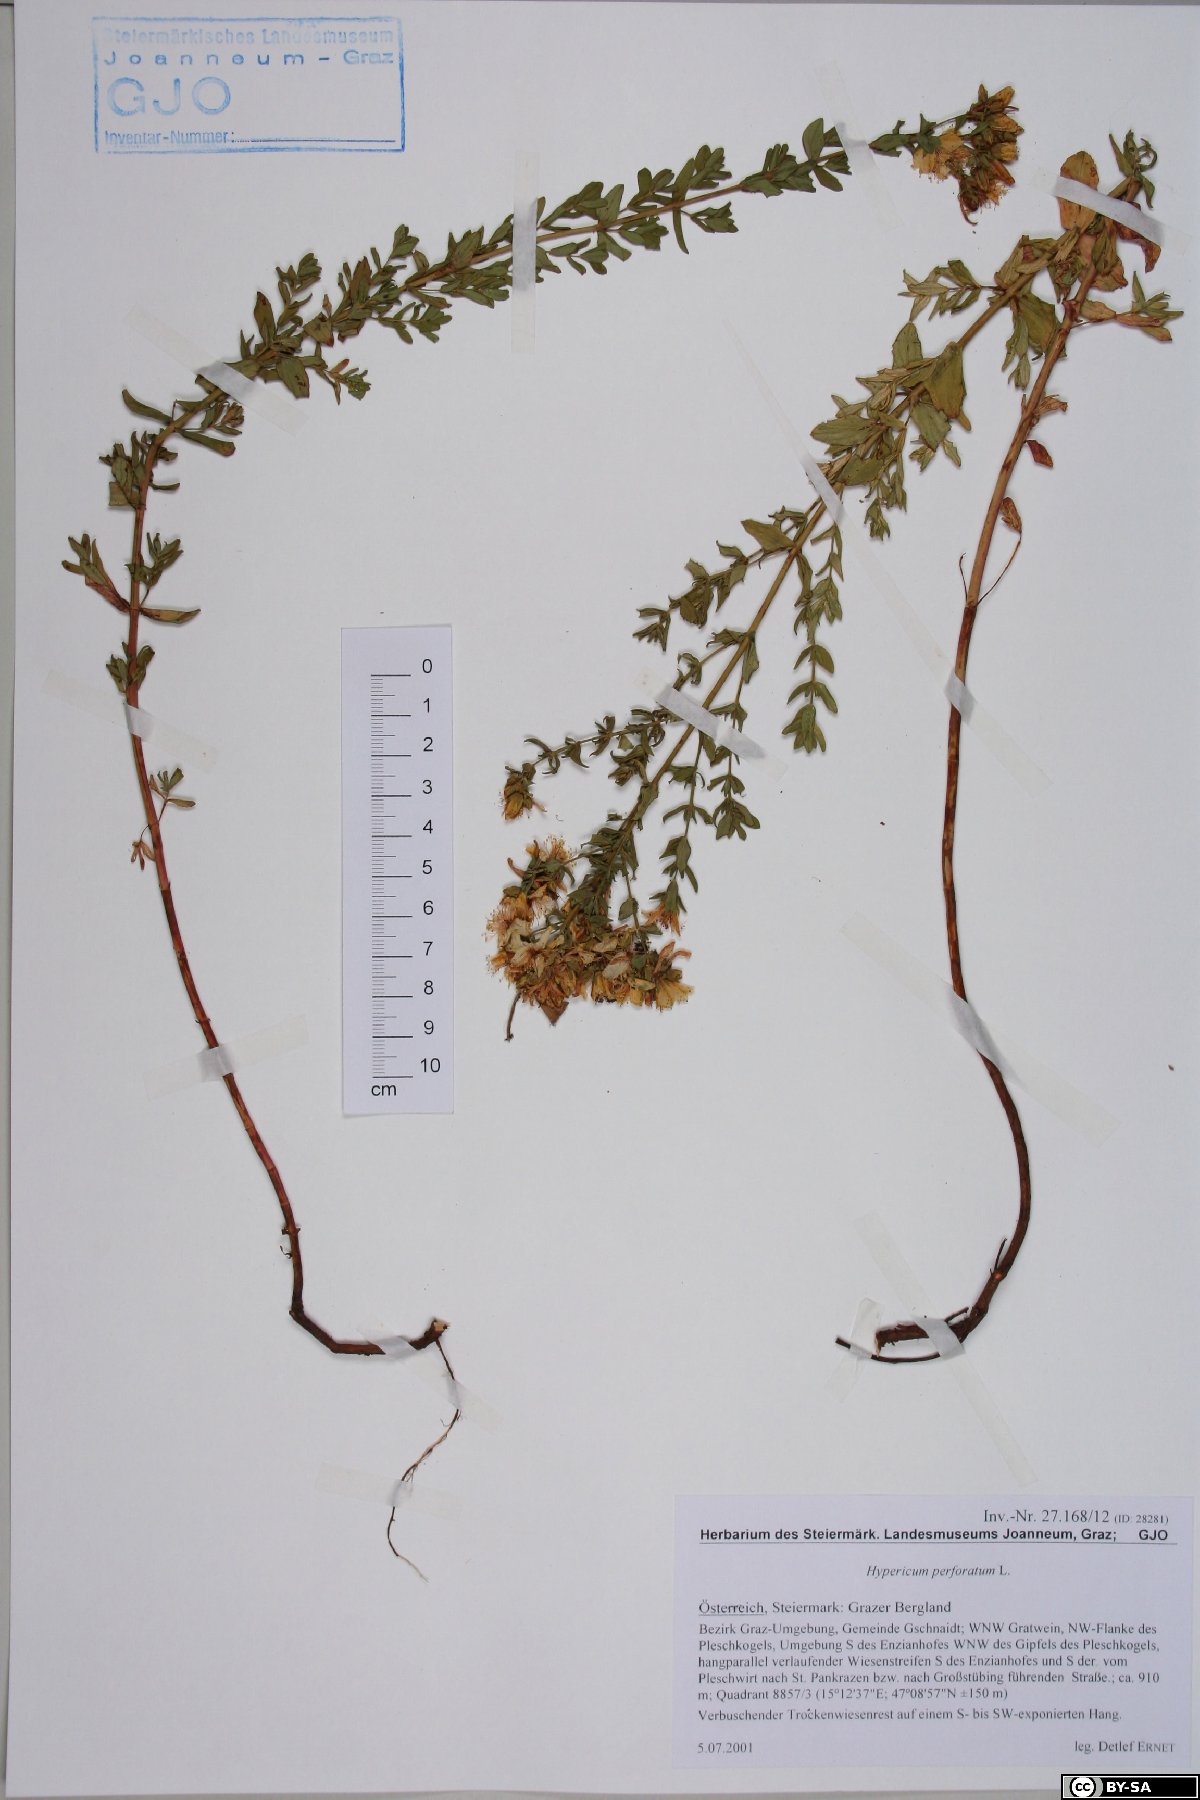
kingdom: Plantae
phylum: Tracheophyta
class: Magnoliopsida
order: Malpighiales
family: Hypericaceae
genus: Hypericum
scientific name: Hypericum perforatum
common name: Common st. johnswort
